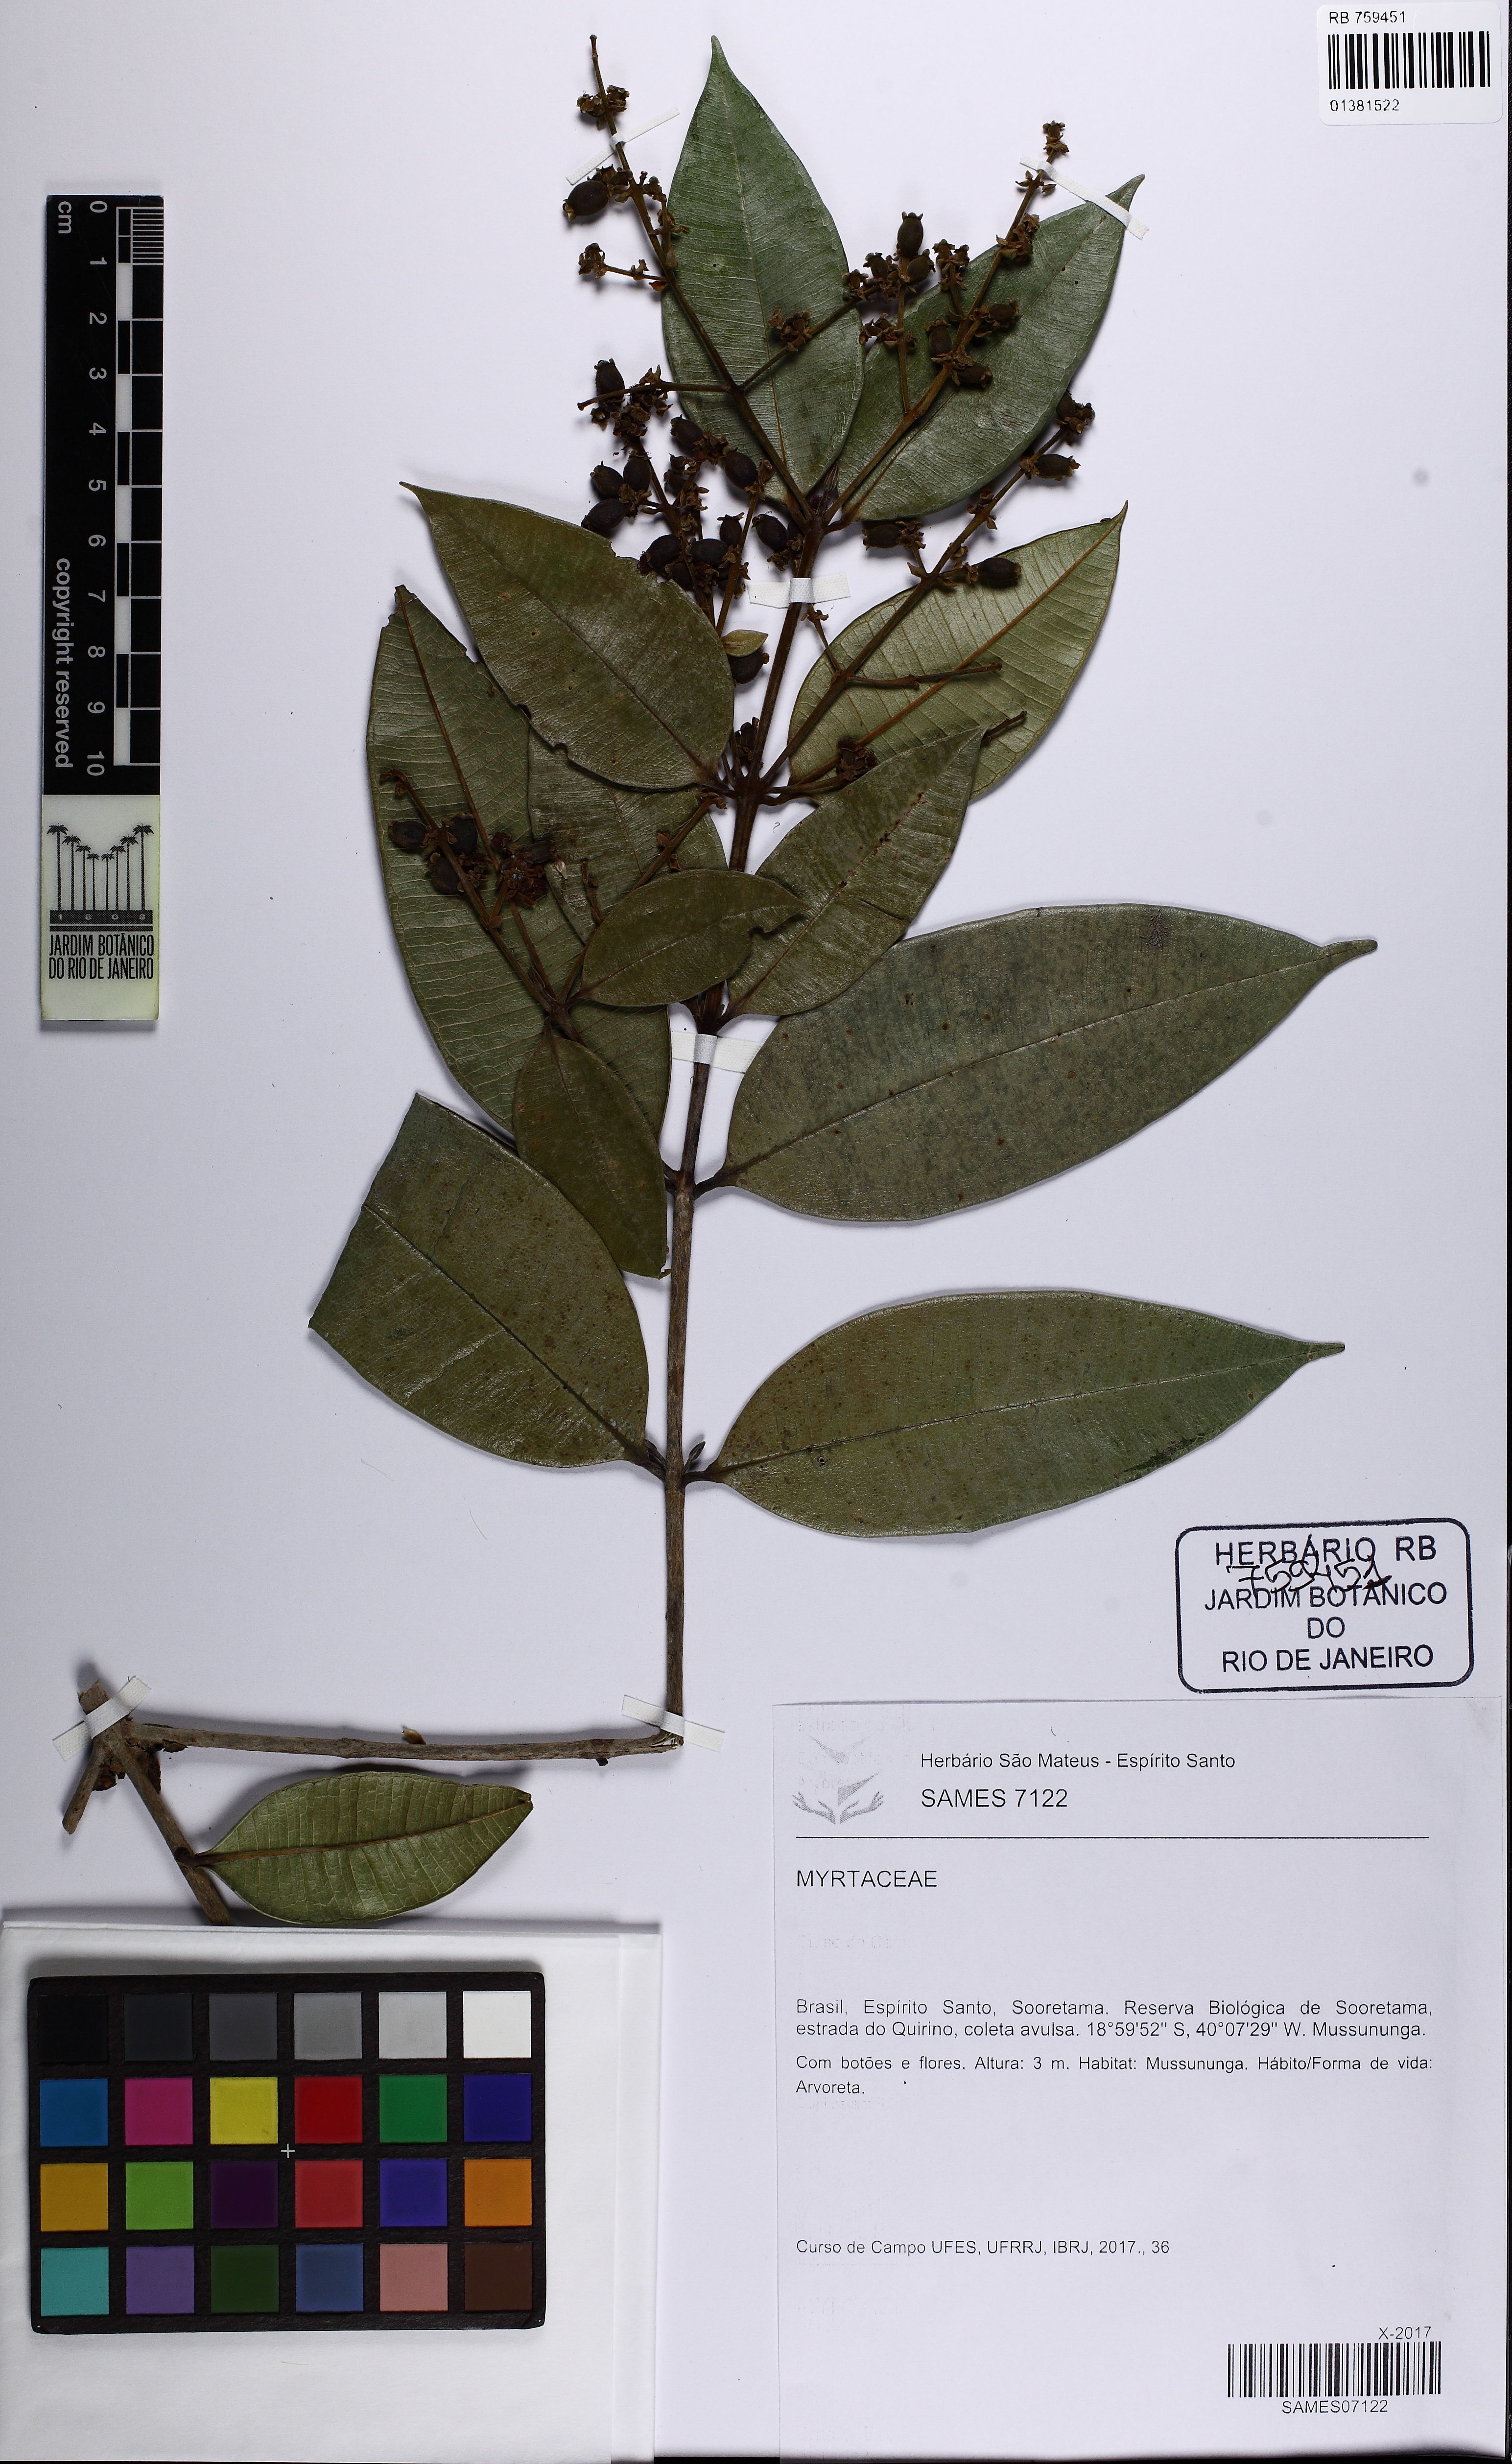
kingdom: Plantae
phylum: Tracheophyta
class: Magnoliopsida
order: Myrtales
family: Myrtaceae
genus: Myrcia
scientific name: Myrcia splendens
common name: Surinam cherry
